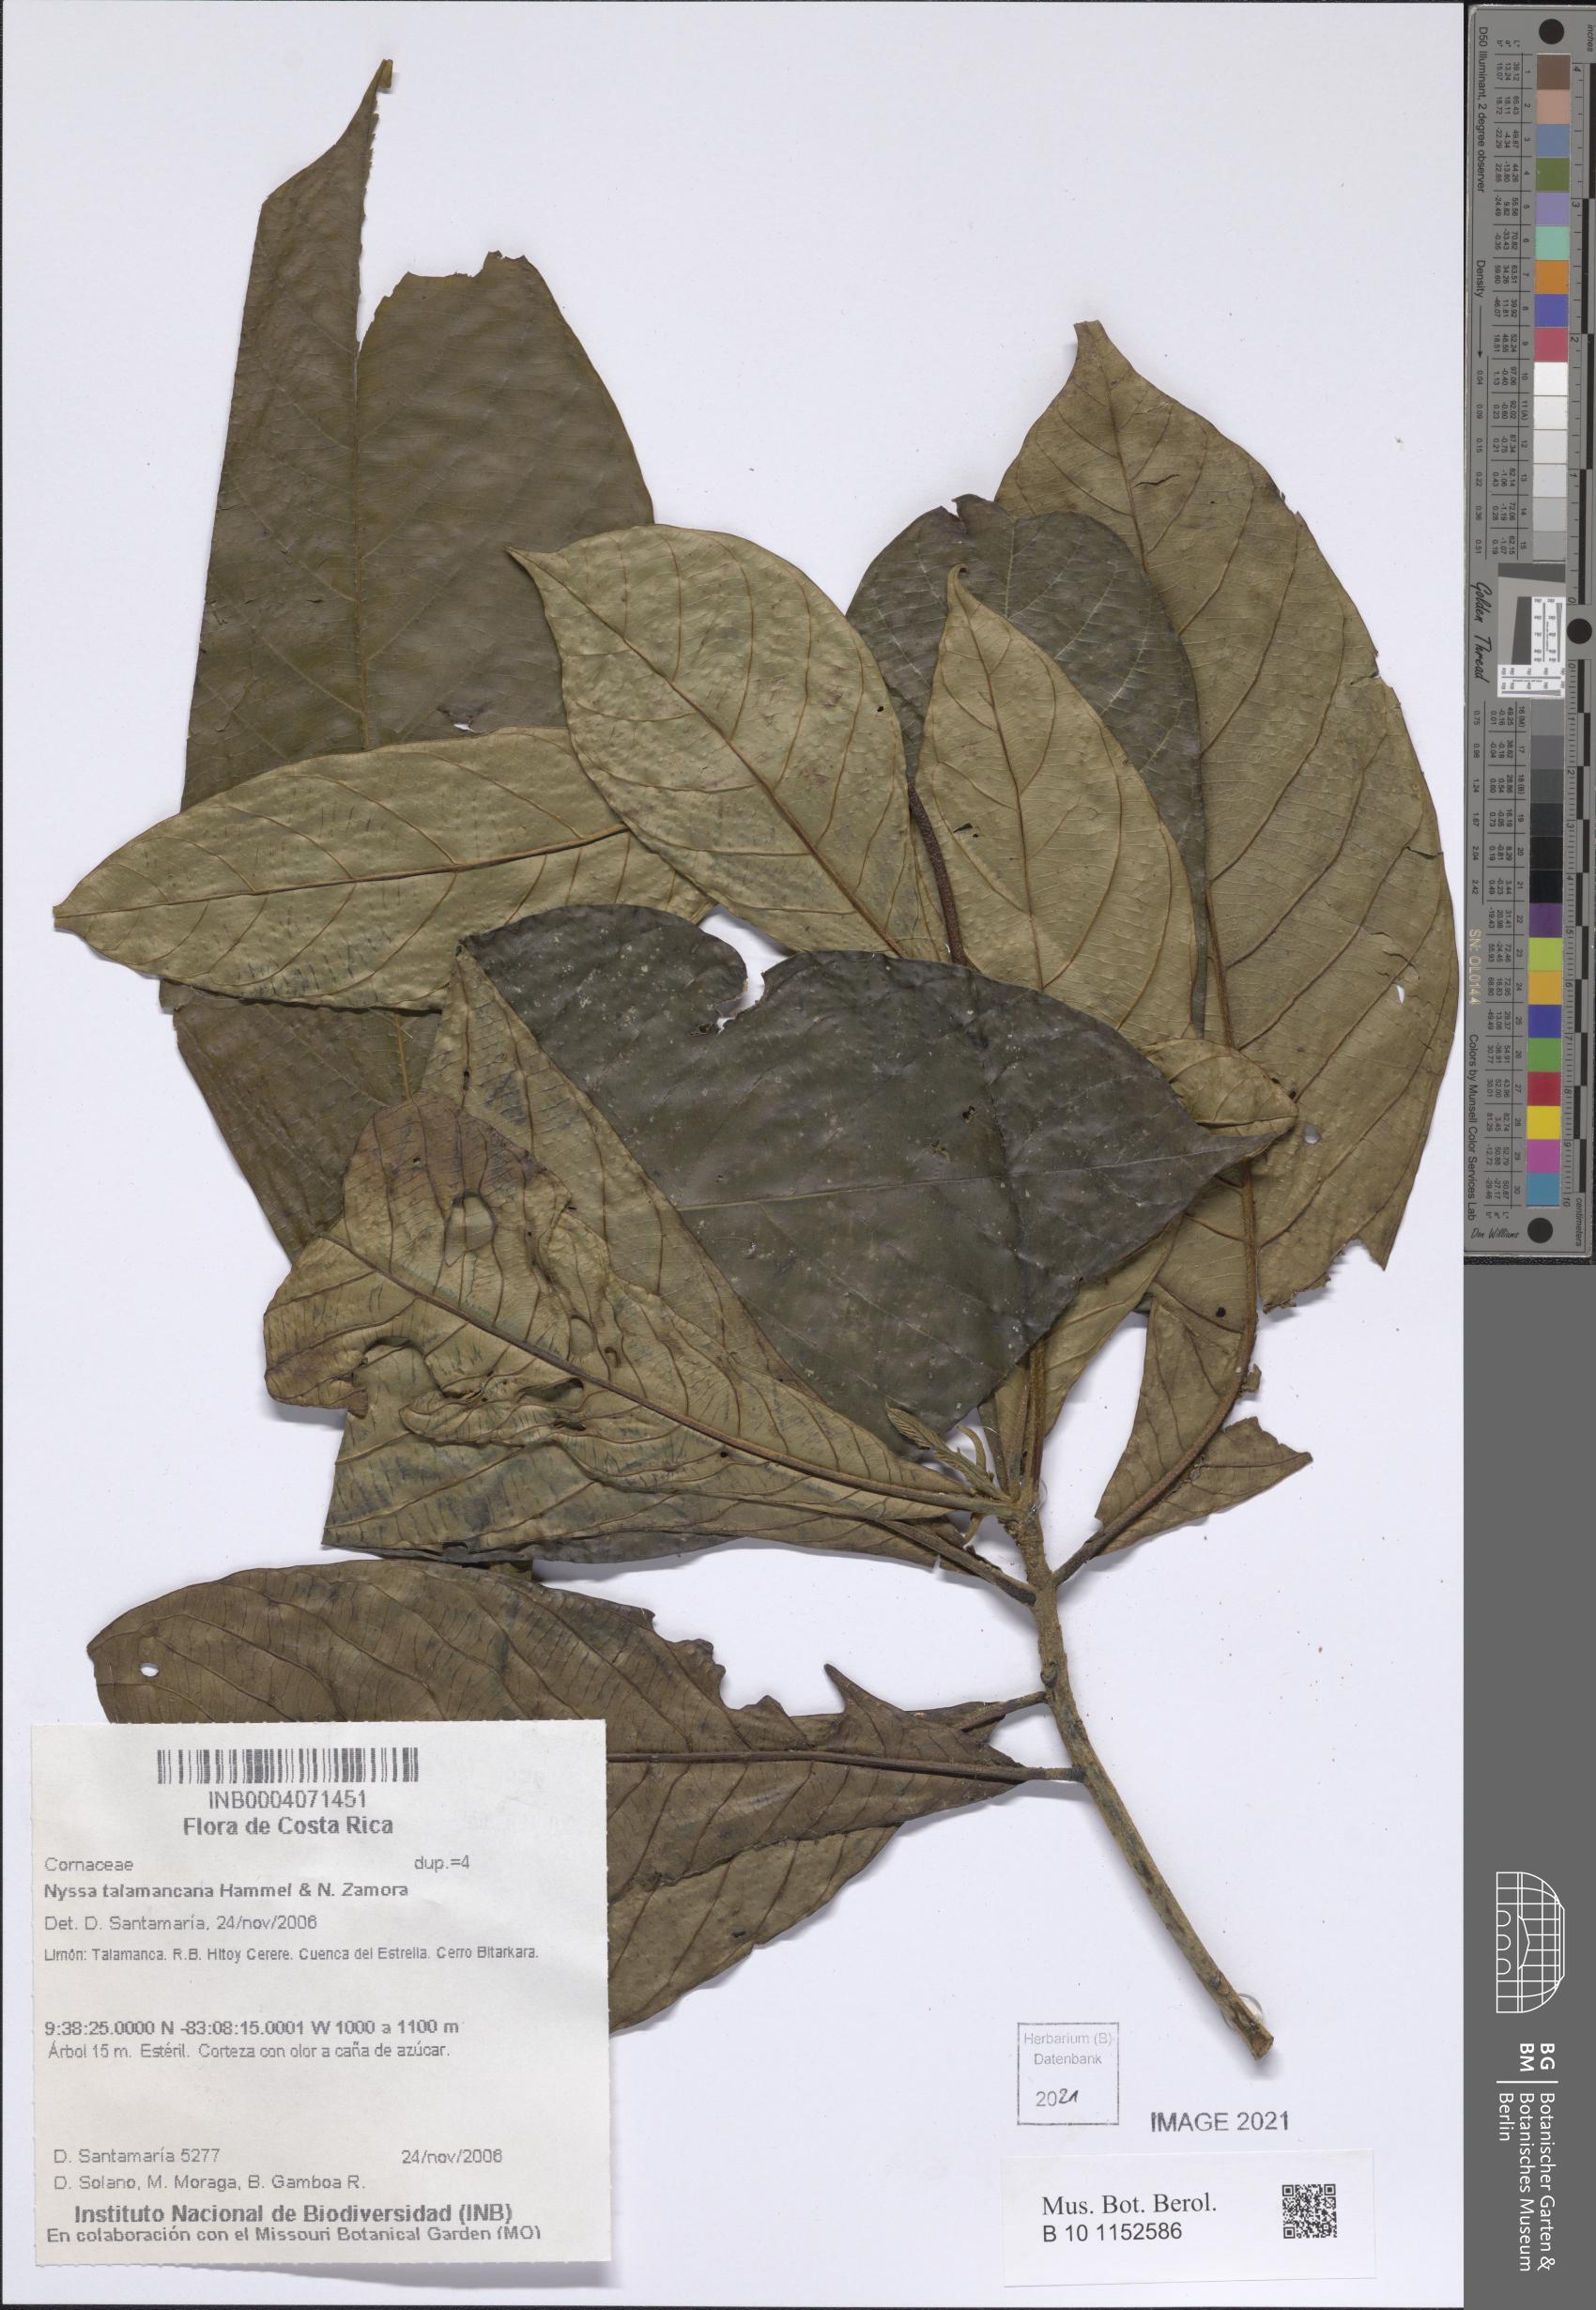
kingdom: Plantae
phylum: Tracheophyta
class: Magnoliopsida
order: Cornales
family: Nyssaceae
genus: Nyssa
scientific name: Nyssa talamancana
